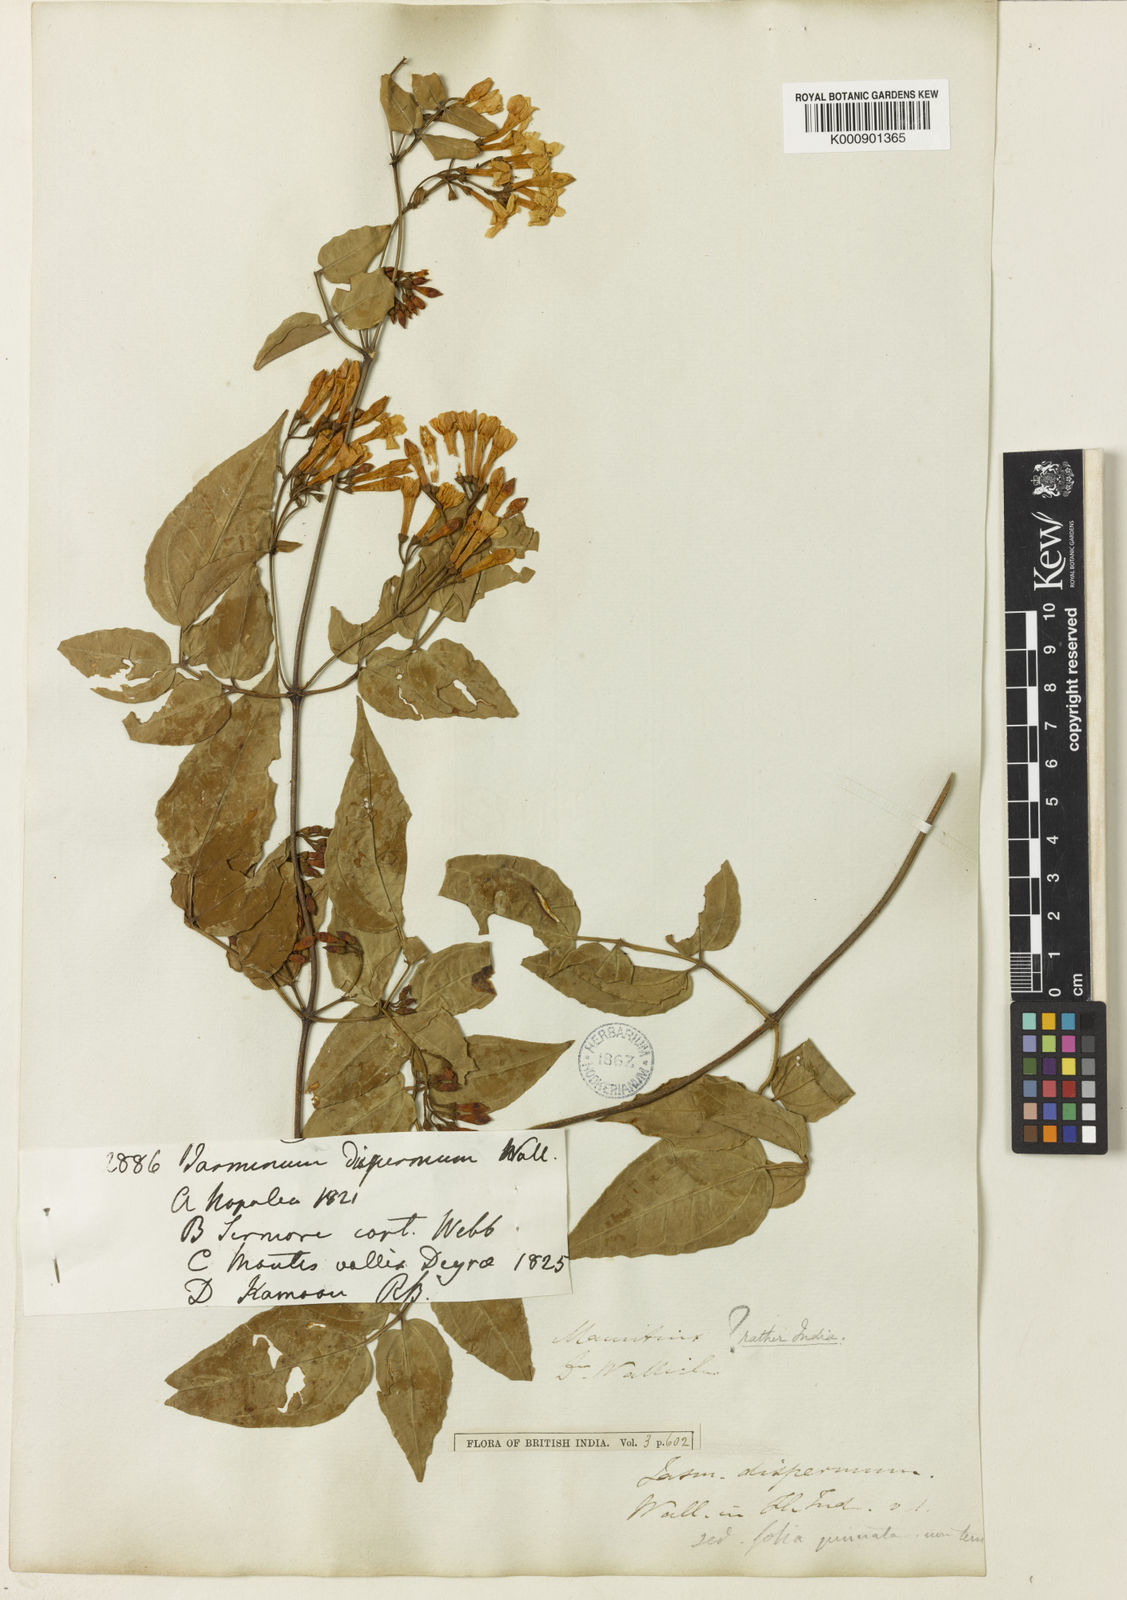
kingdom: Plantae
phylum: Tracheophyta
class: Magnoliopsida
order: Lamiales
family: Oleaceae
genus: Jasminum
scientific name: Jasminum dispermum
